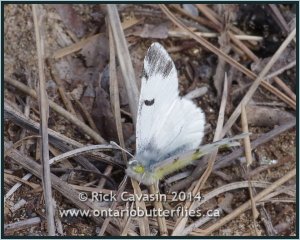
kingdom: Animalia
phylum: Arthropoda
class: Insecta
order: Lepidoptera
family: Pieridae
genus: Euchloe
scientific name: Euchloe olympia
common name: Olympia Marble
